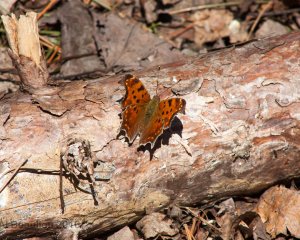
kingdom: Animalia
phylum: Arthropoda
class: Insecta
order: Lepidoptera
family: Nymphalidae
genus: Polygonia
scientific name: Polygonia comma
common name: Eastern Comma
